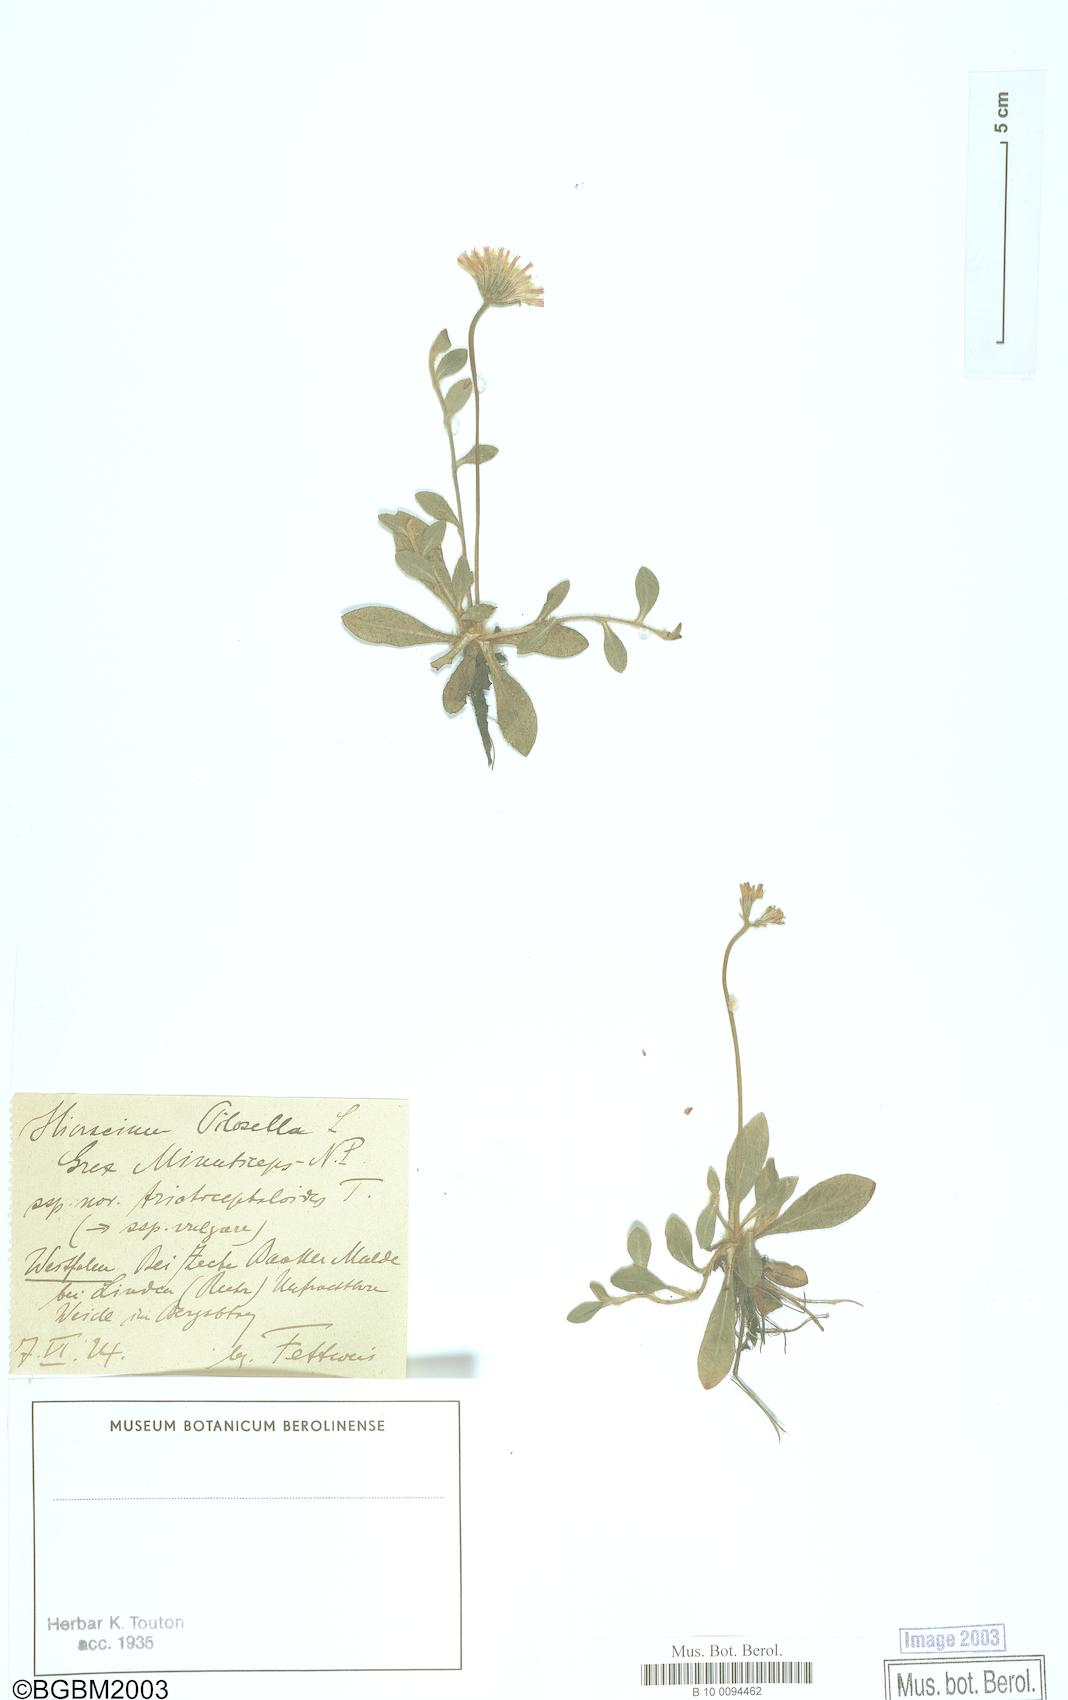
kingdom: Plantae
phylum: Tracheophyta
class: Magnoliopsida
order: Asterales
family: Asteraceae
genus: Pilosella
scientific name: Pilosella officinarum
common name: Mouse-ear hawkweed
